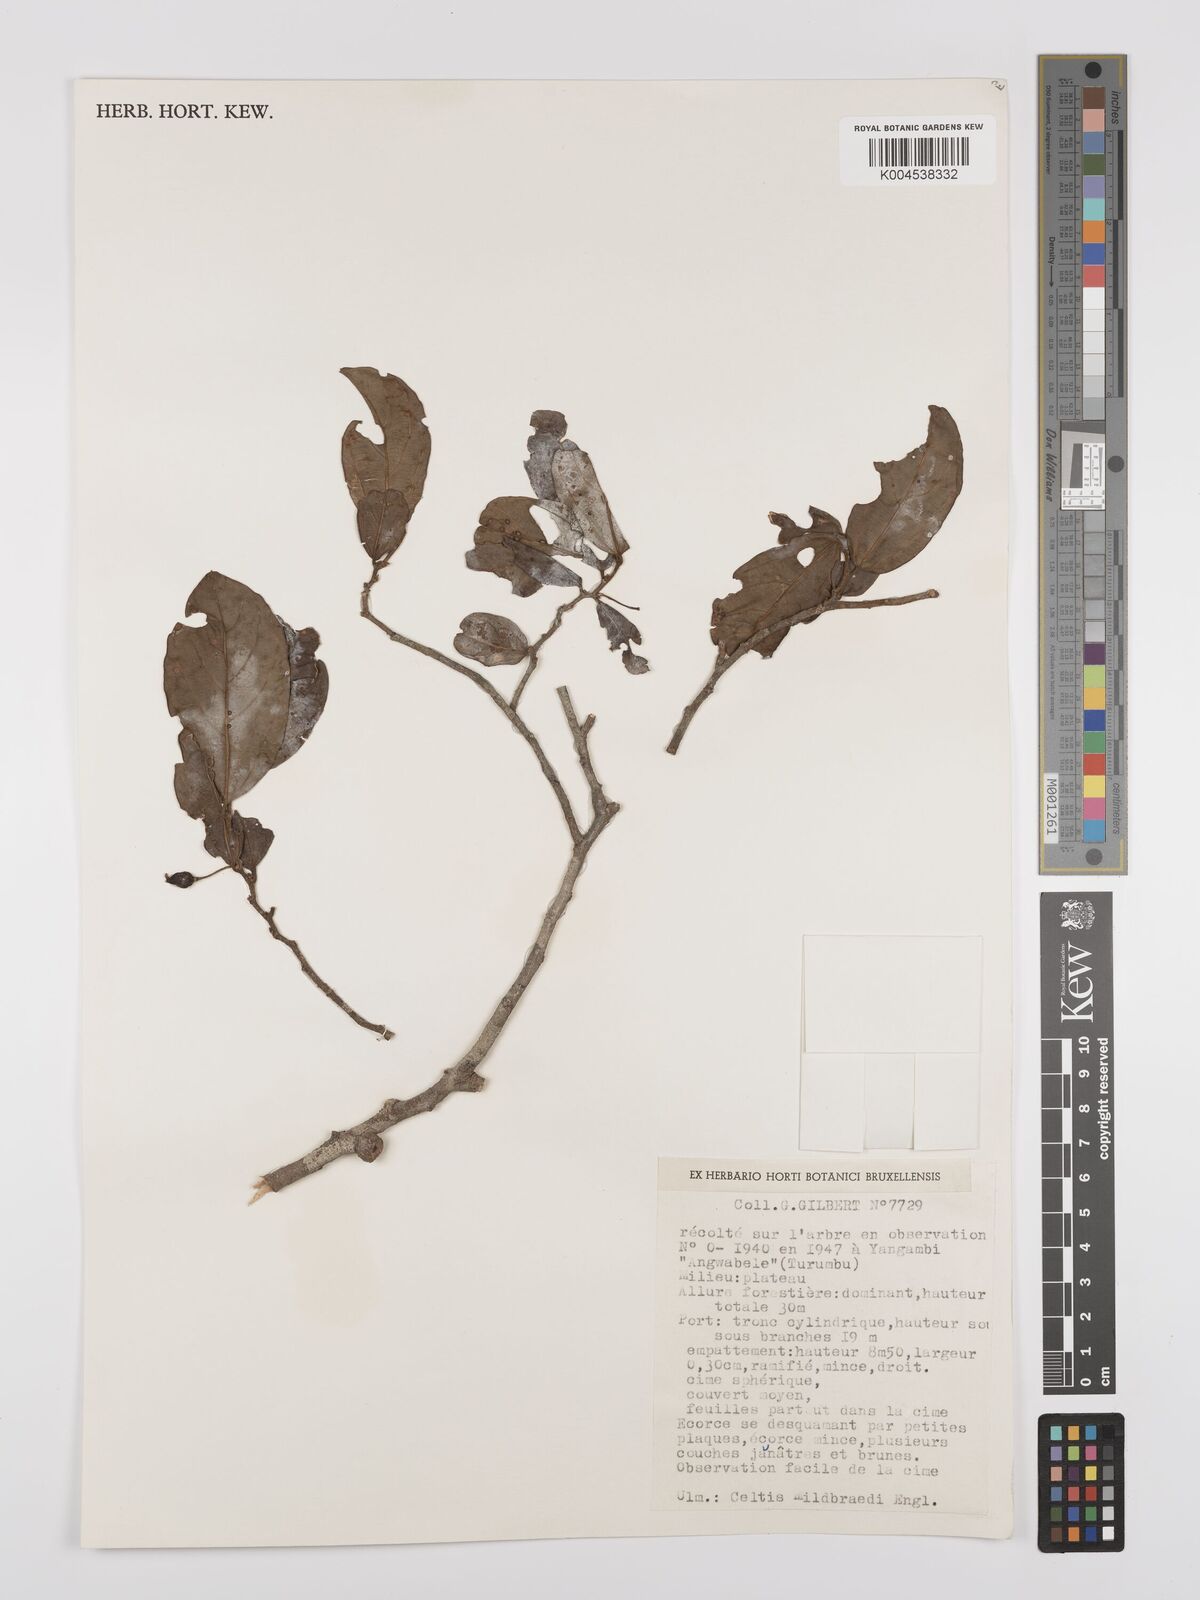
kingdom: Plantae
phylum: Tracheophyta
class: Magnoliopsida
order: Rosales
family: Cannabaceae
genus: Celtis
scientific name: Celtis mildbraedii
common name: Red-fruited stinkwood
